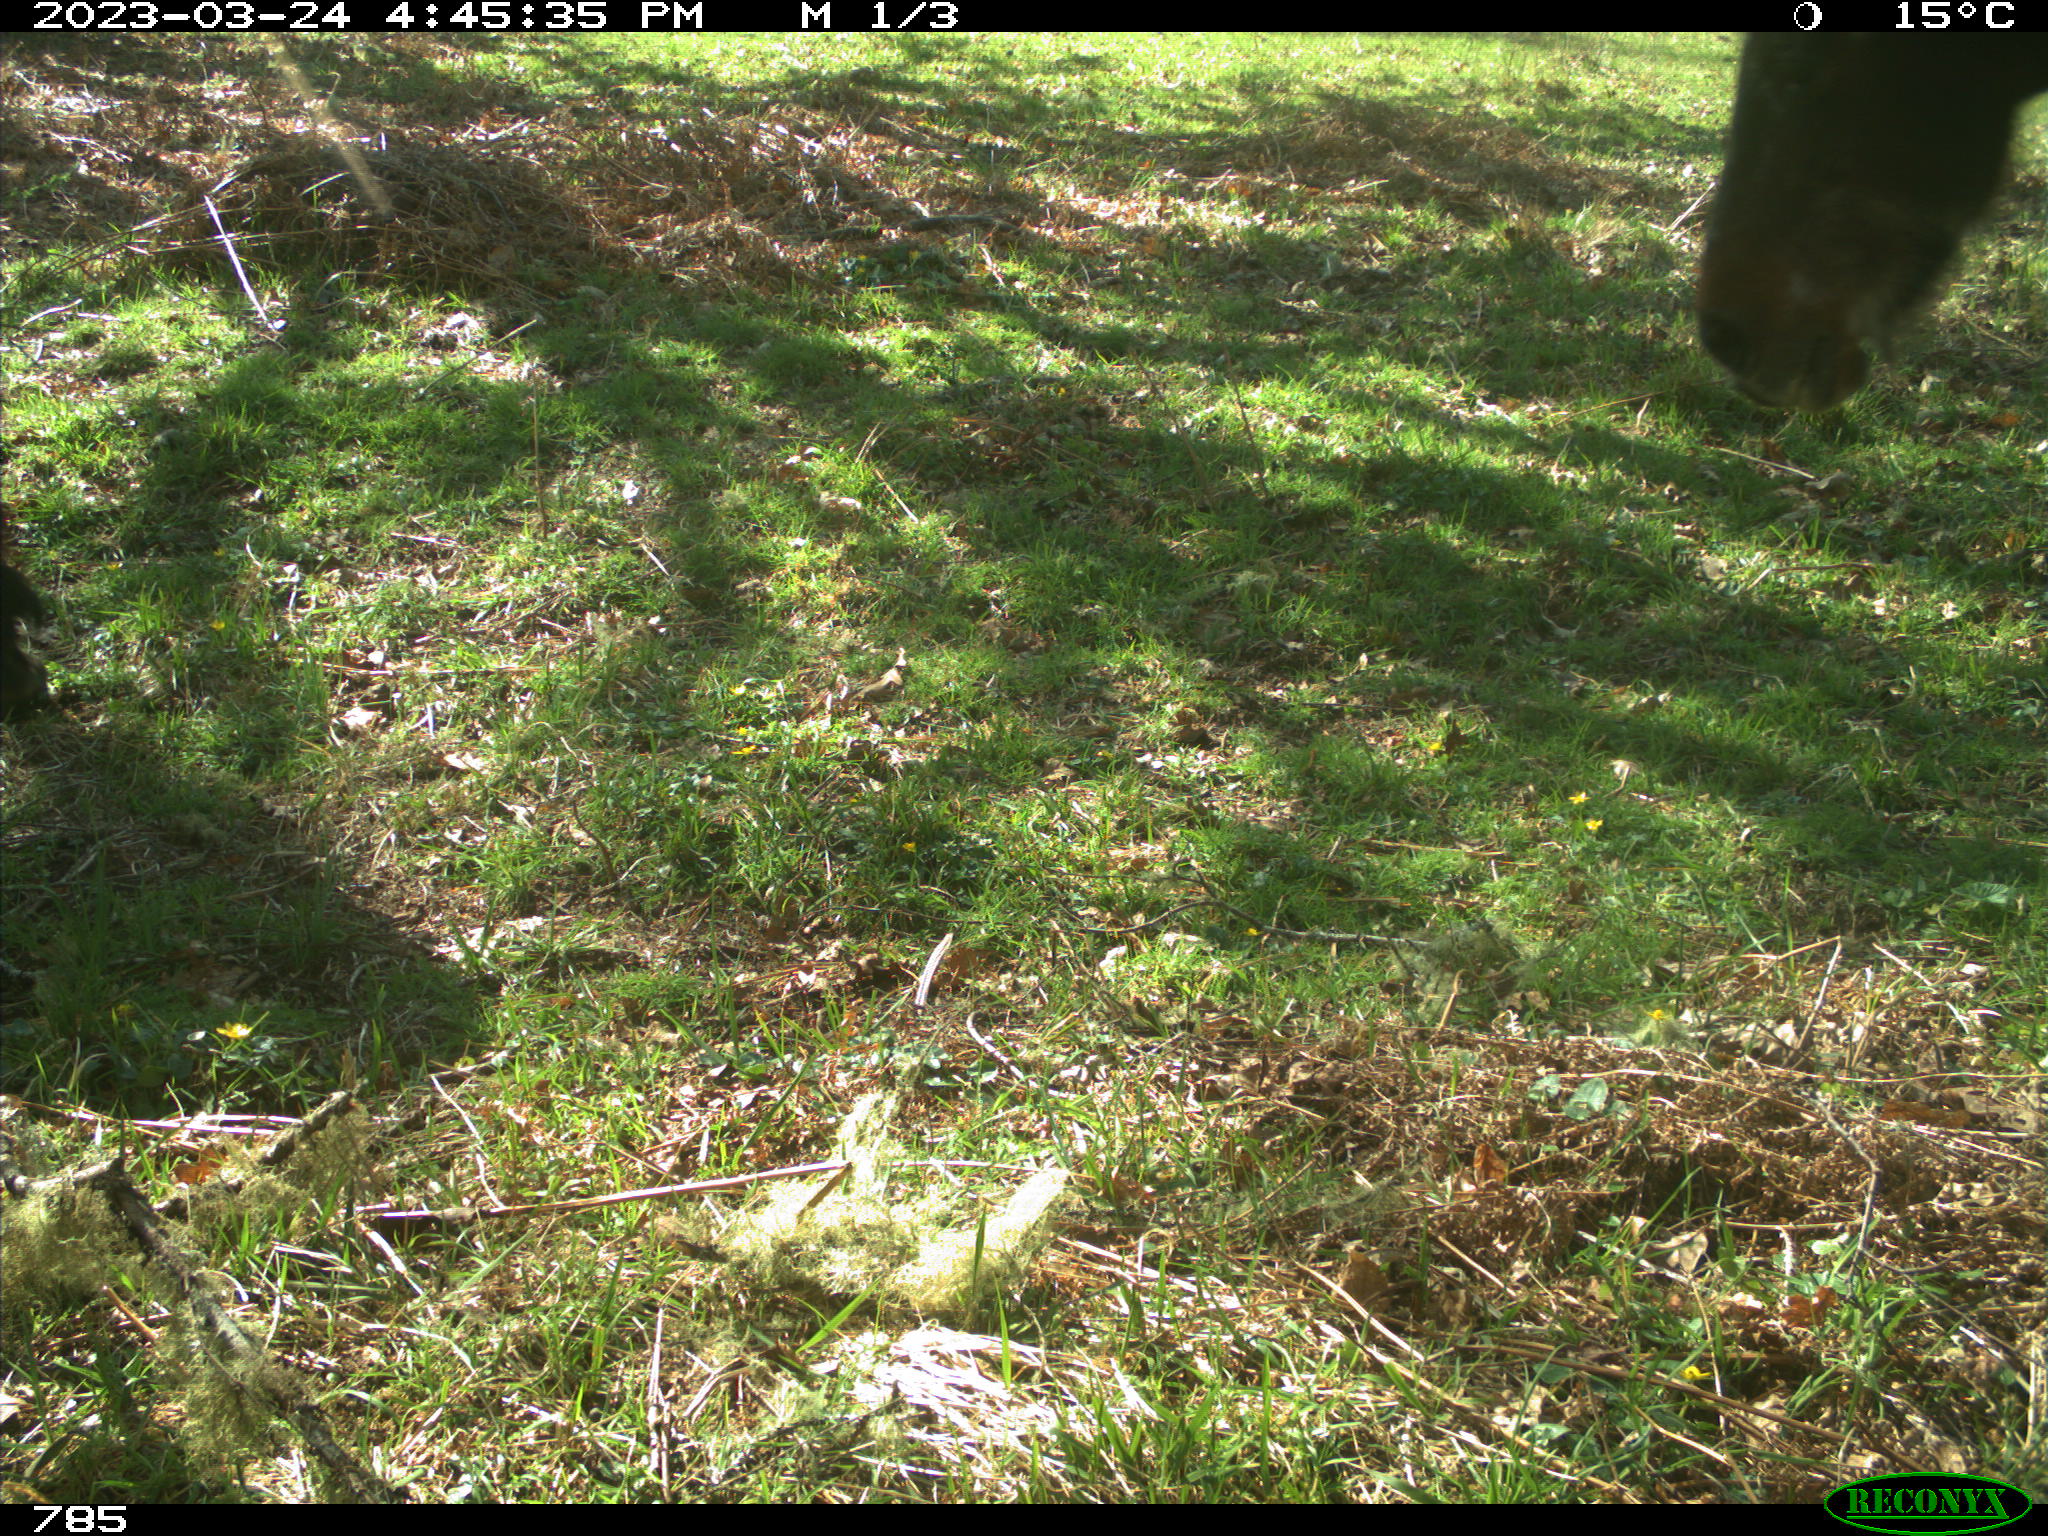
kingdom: Animalia
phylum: Chordata
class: Mammalia
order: Perissodactyla
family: Equidae
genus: Equus
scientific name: Equus caballus
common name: Horse
